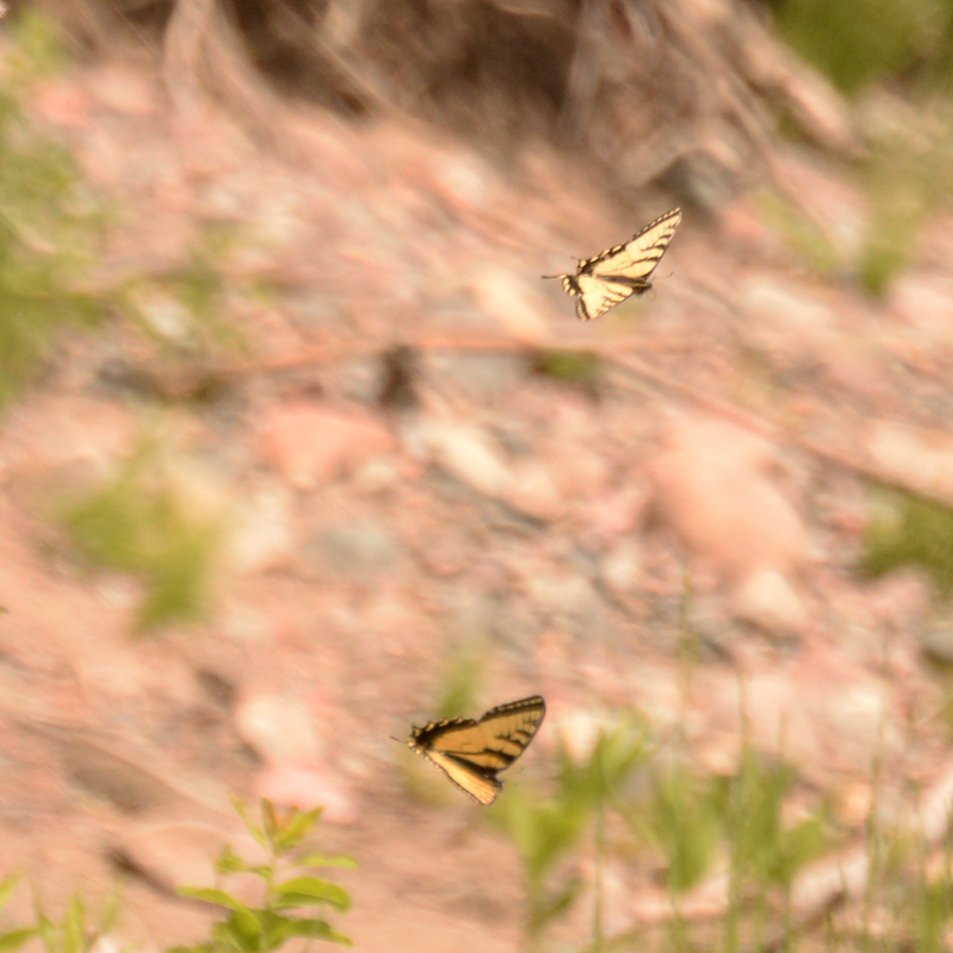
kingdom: Animalia
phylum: Arthropoda
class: Insecta
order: Lepidoptera
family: Papilionidae
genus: Pterourus
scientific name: Pterourus canadensis
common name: Canadian Tiger Swallowtail
